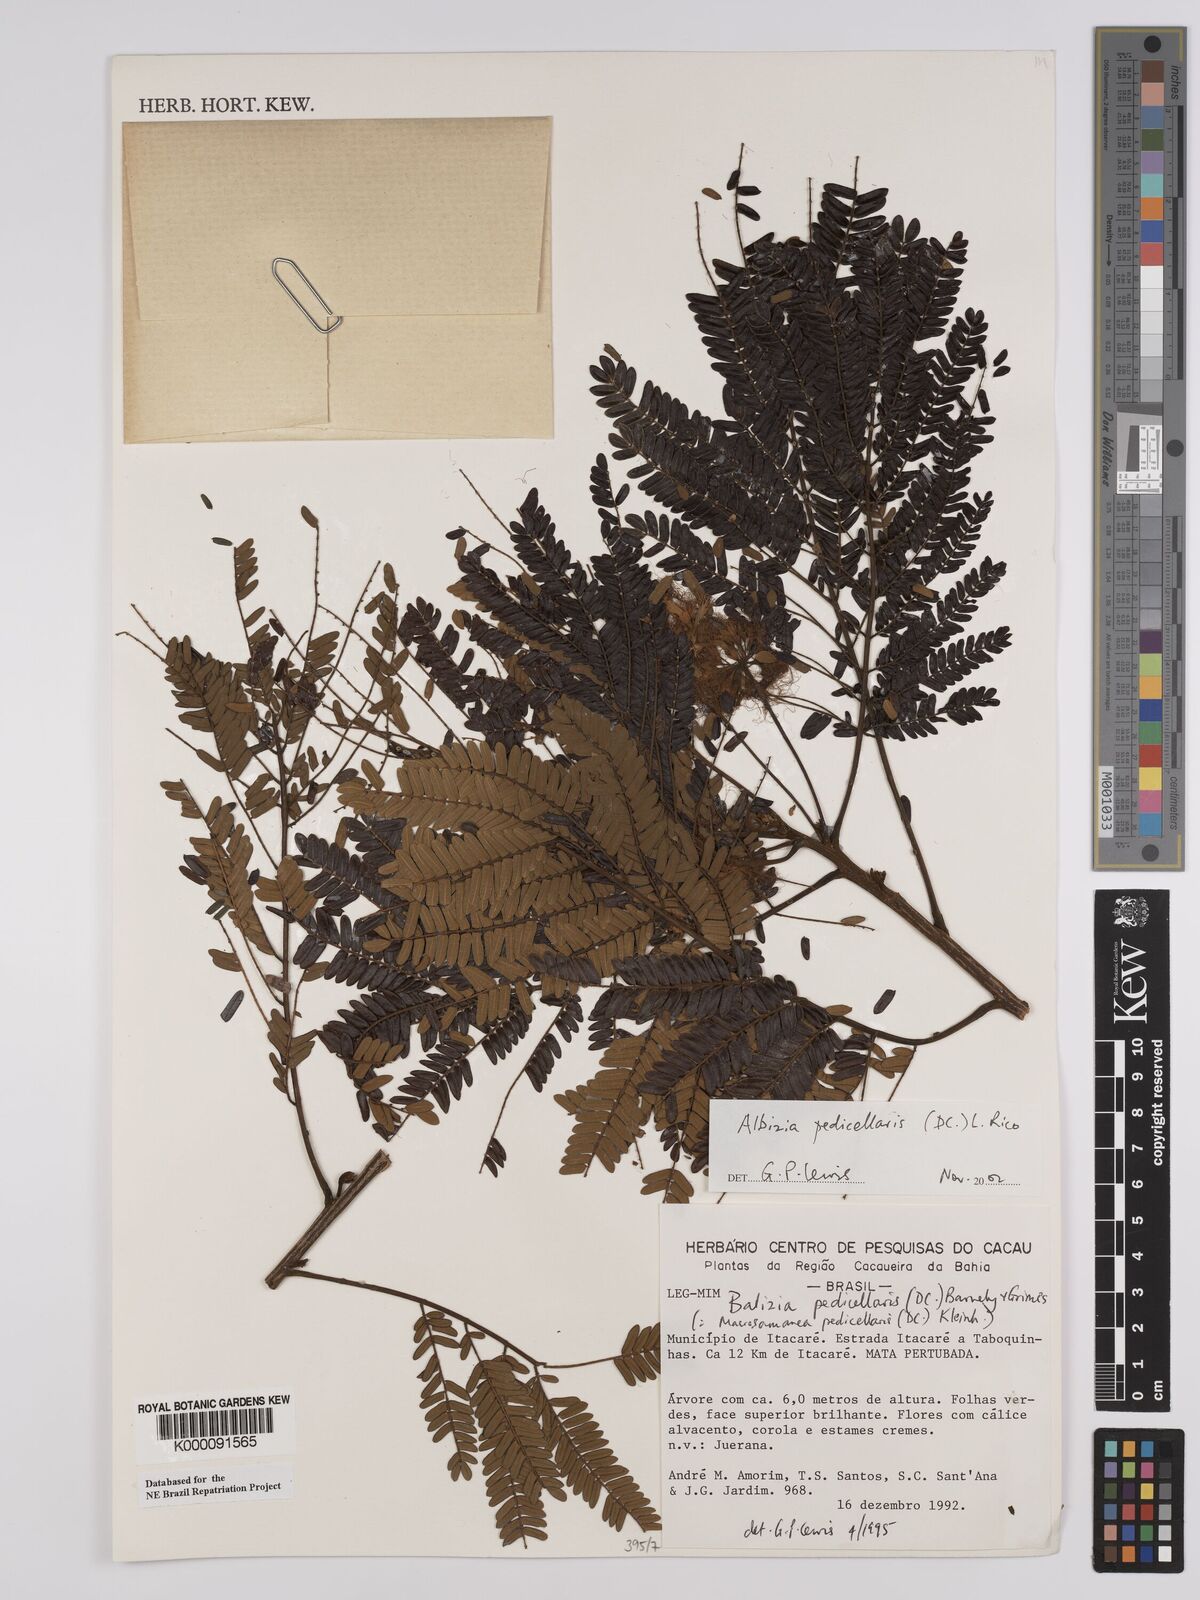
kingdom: Plantae
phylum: Tracheophyta
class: Magnoliopsida
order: Fabales
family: Fabaceae
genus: Balizia
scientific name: Balizia pedicellaris
